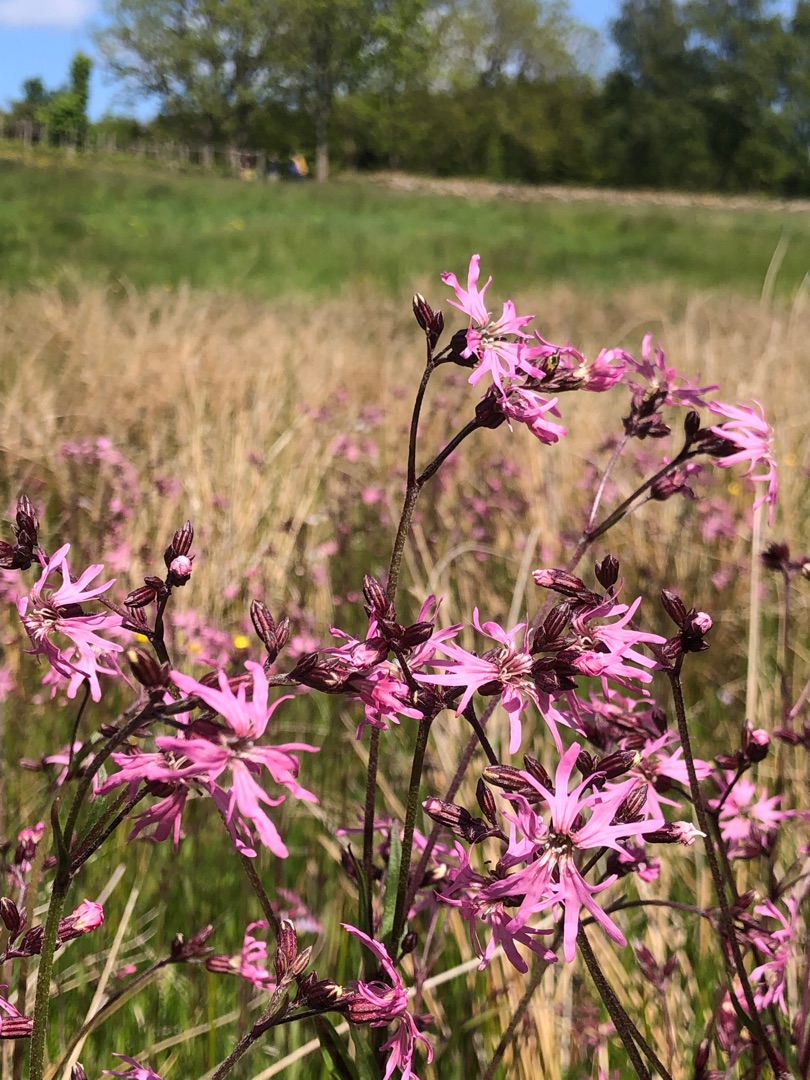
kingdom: Plantae
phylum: Tracheophyta
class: Magnoliopsida
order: Caryophyllales
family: Caryophyllaceae
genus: Silene
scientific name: Silene flos-cuculi
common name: Trævlekrone
